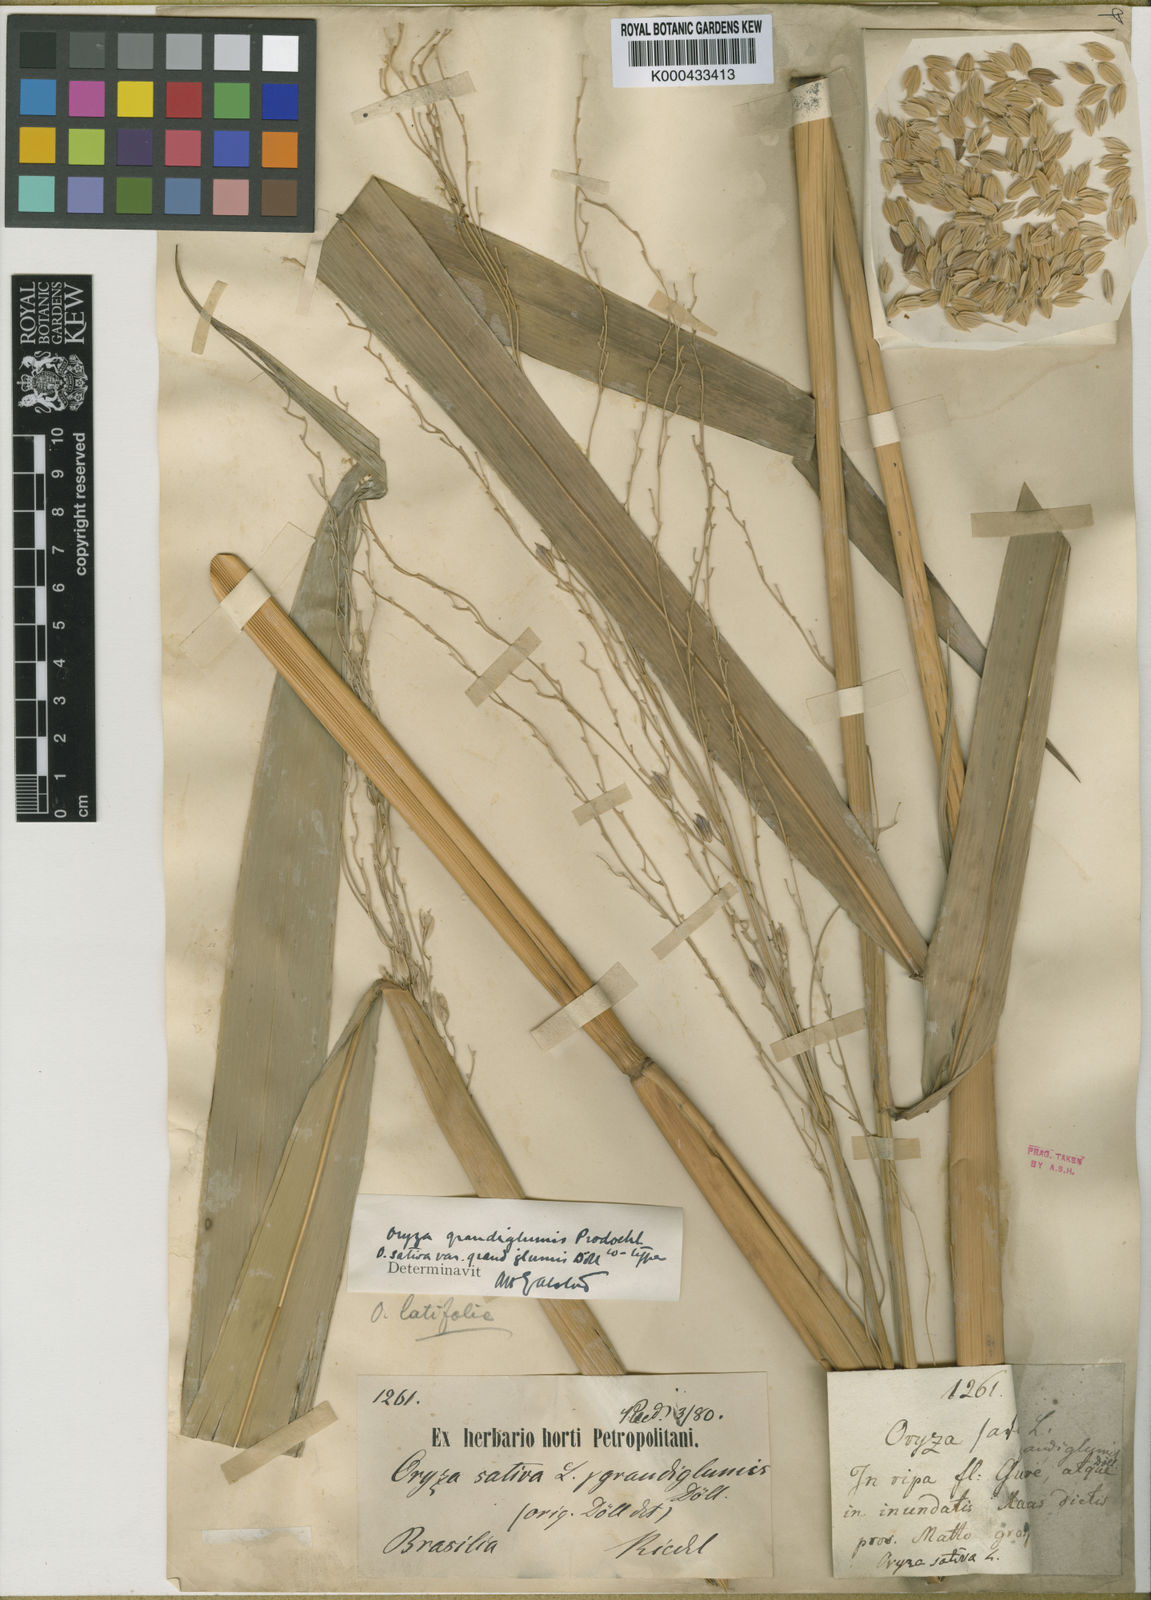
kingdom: Plantae
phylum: Tracheophyta
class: Liliopsida
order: Poales
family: Poaceae
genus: Oryza
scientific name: Oryza grandiglumis
